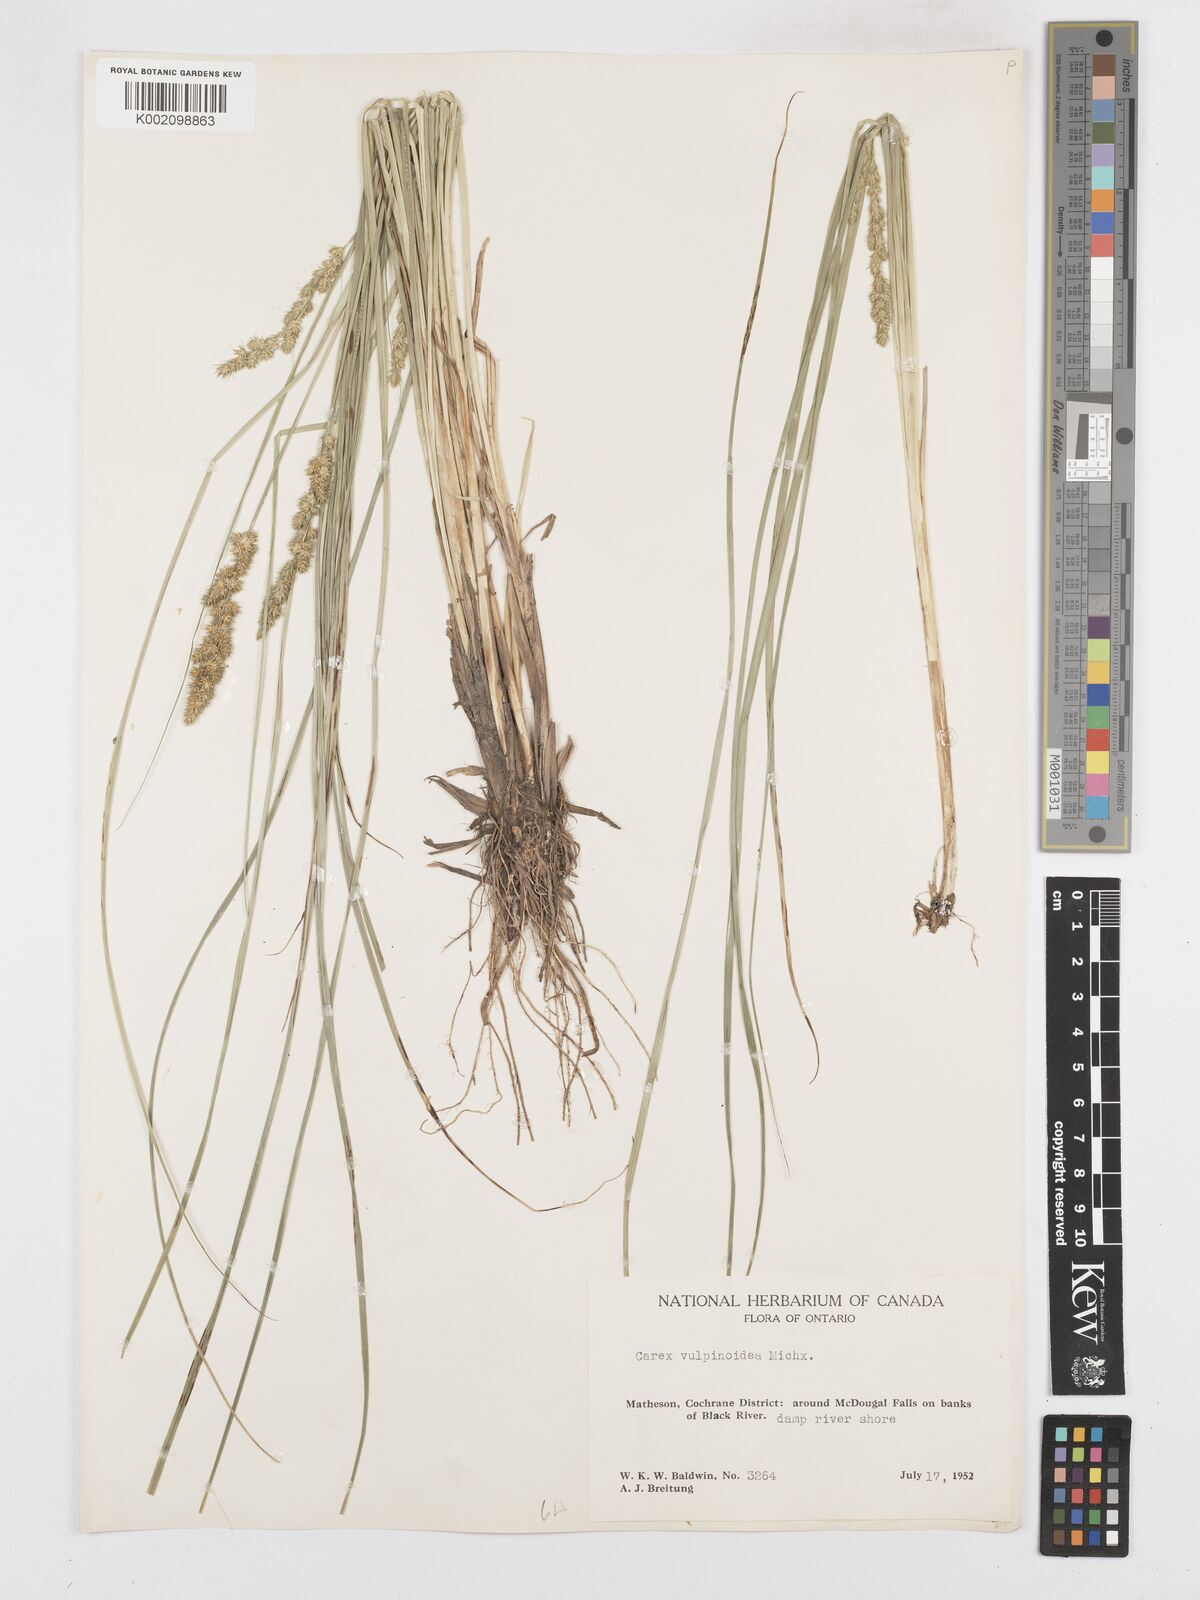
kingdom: Plantae
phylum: Tracheophyta
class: Liliopsida
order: Poales
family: Cyperaceae
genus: Carex
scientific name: Carex vulpinoidea
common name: American fox-sedge
